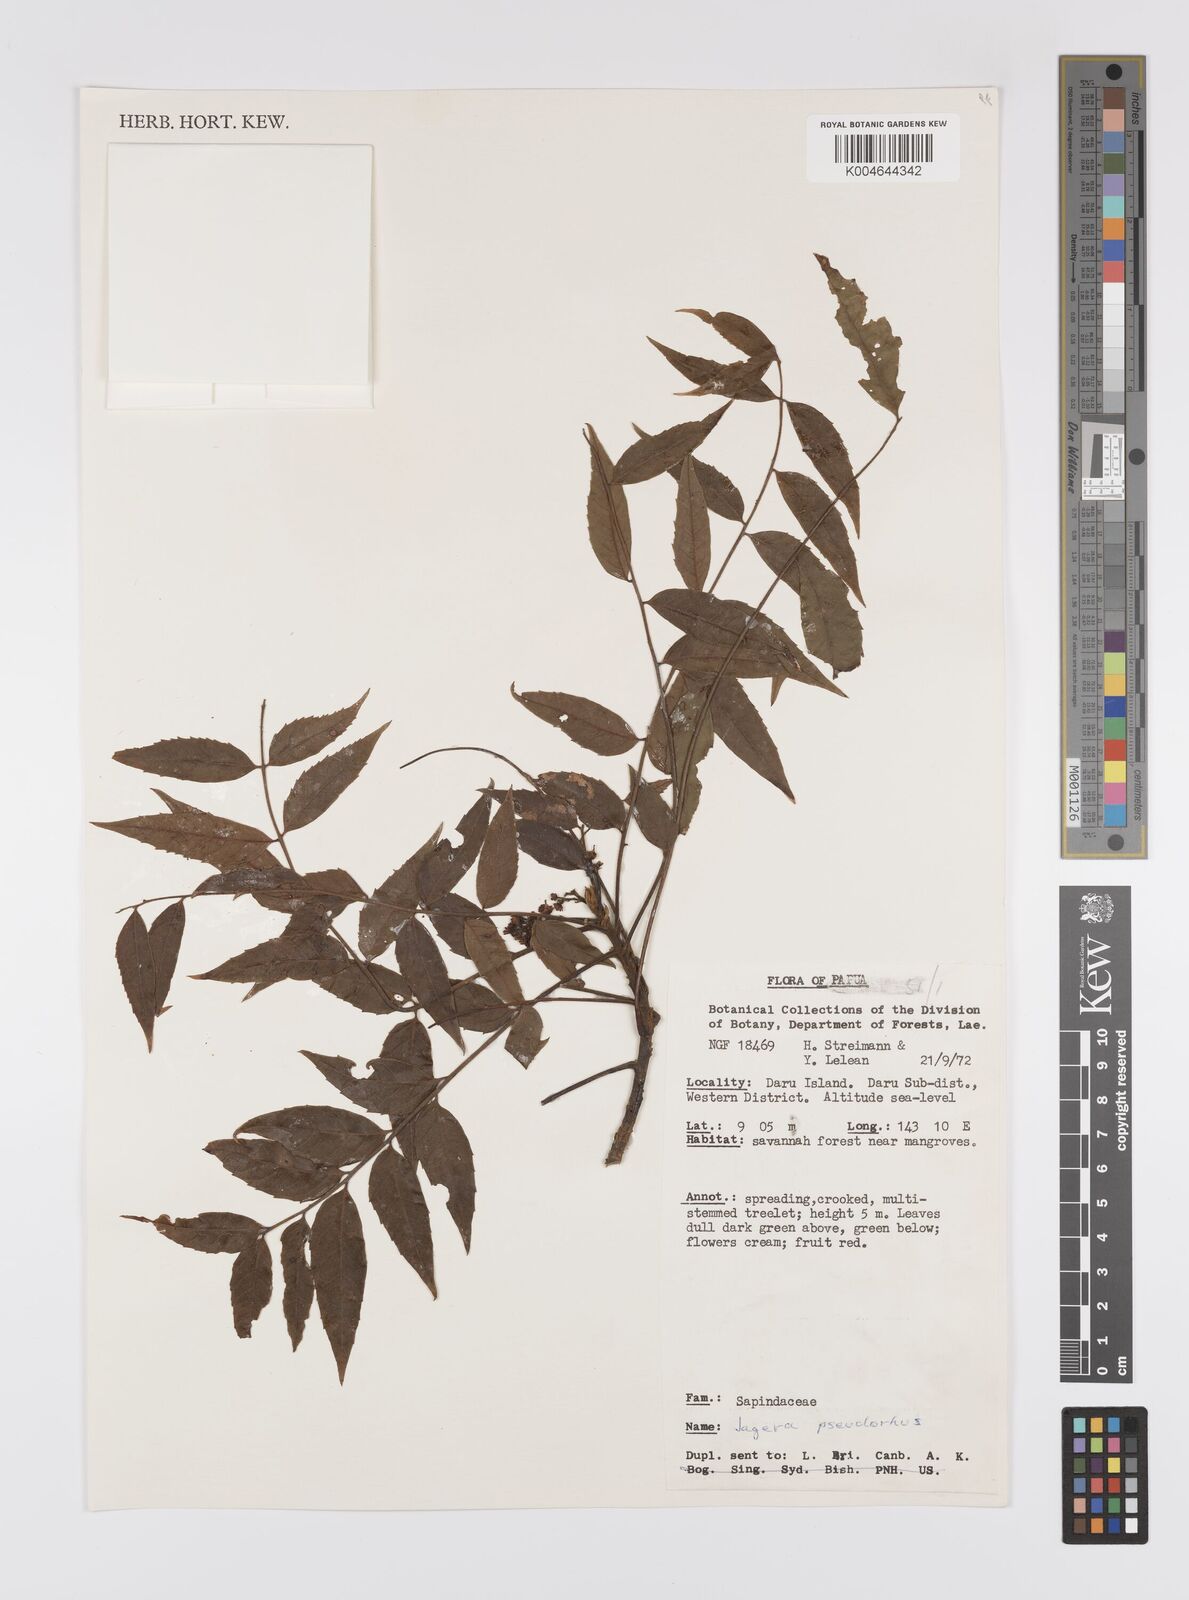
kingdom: Plantae
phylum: Tracheophyta
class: Magnoliopsida
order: Sapindales
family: Sapindaceae
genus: Jagera
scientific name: Jagera pseudorhus
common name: Fern-leaf-tamarind
